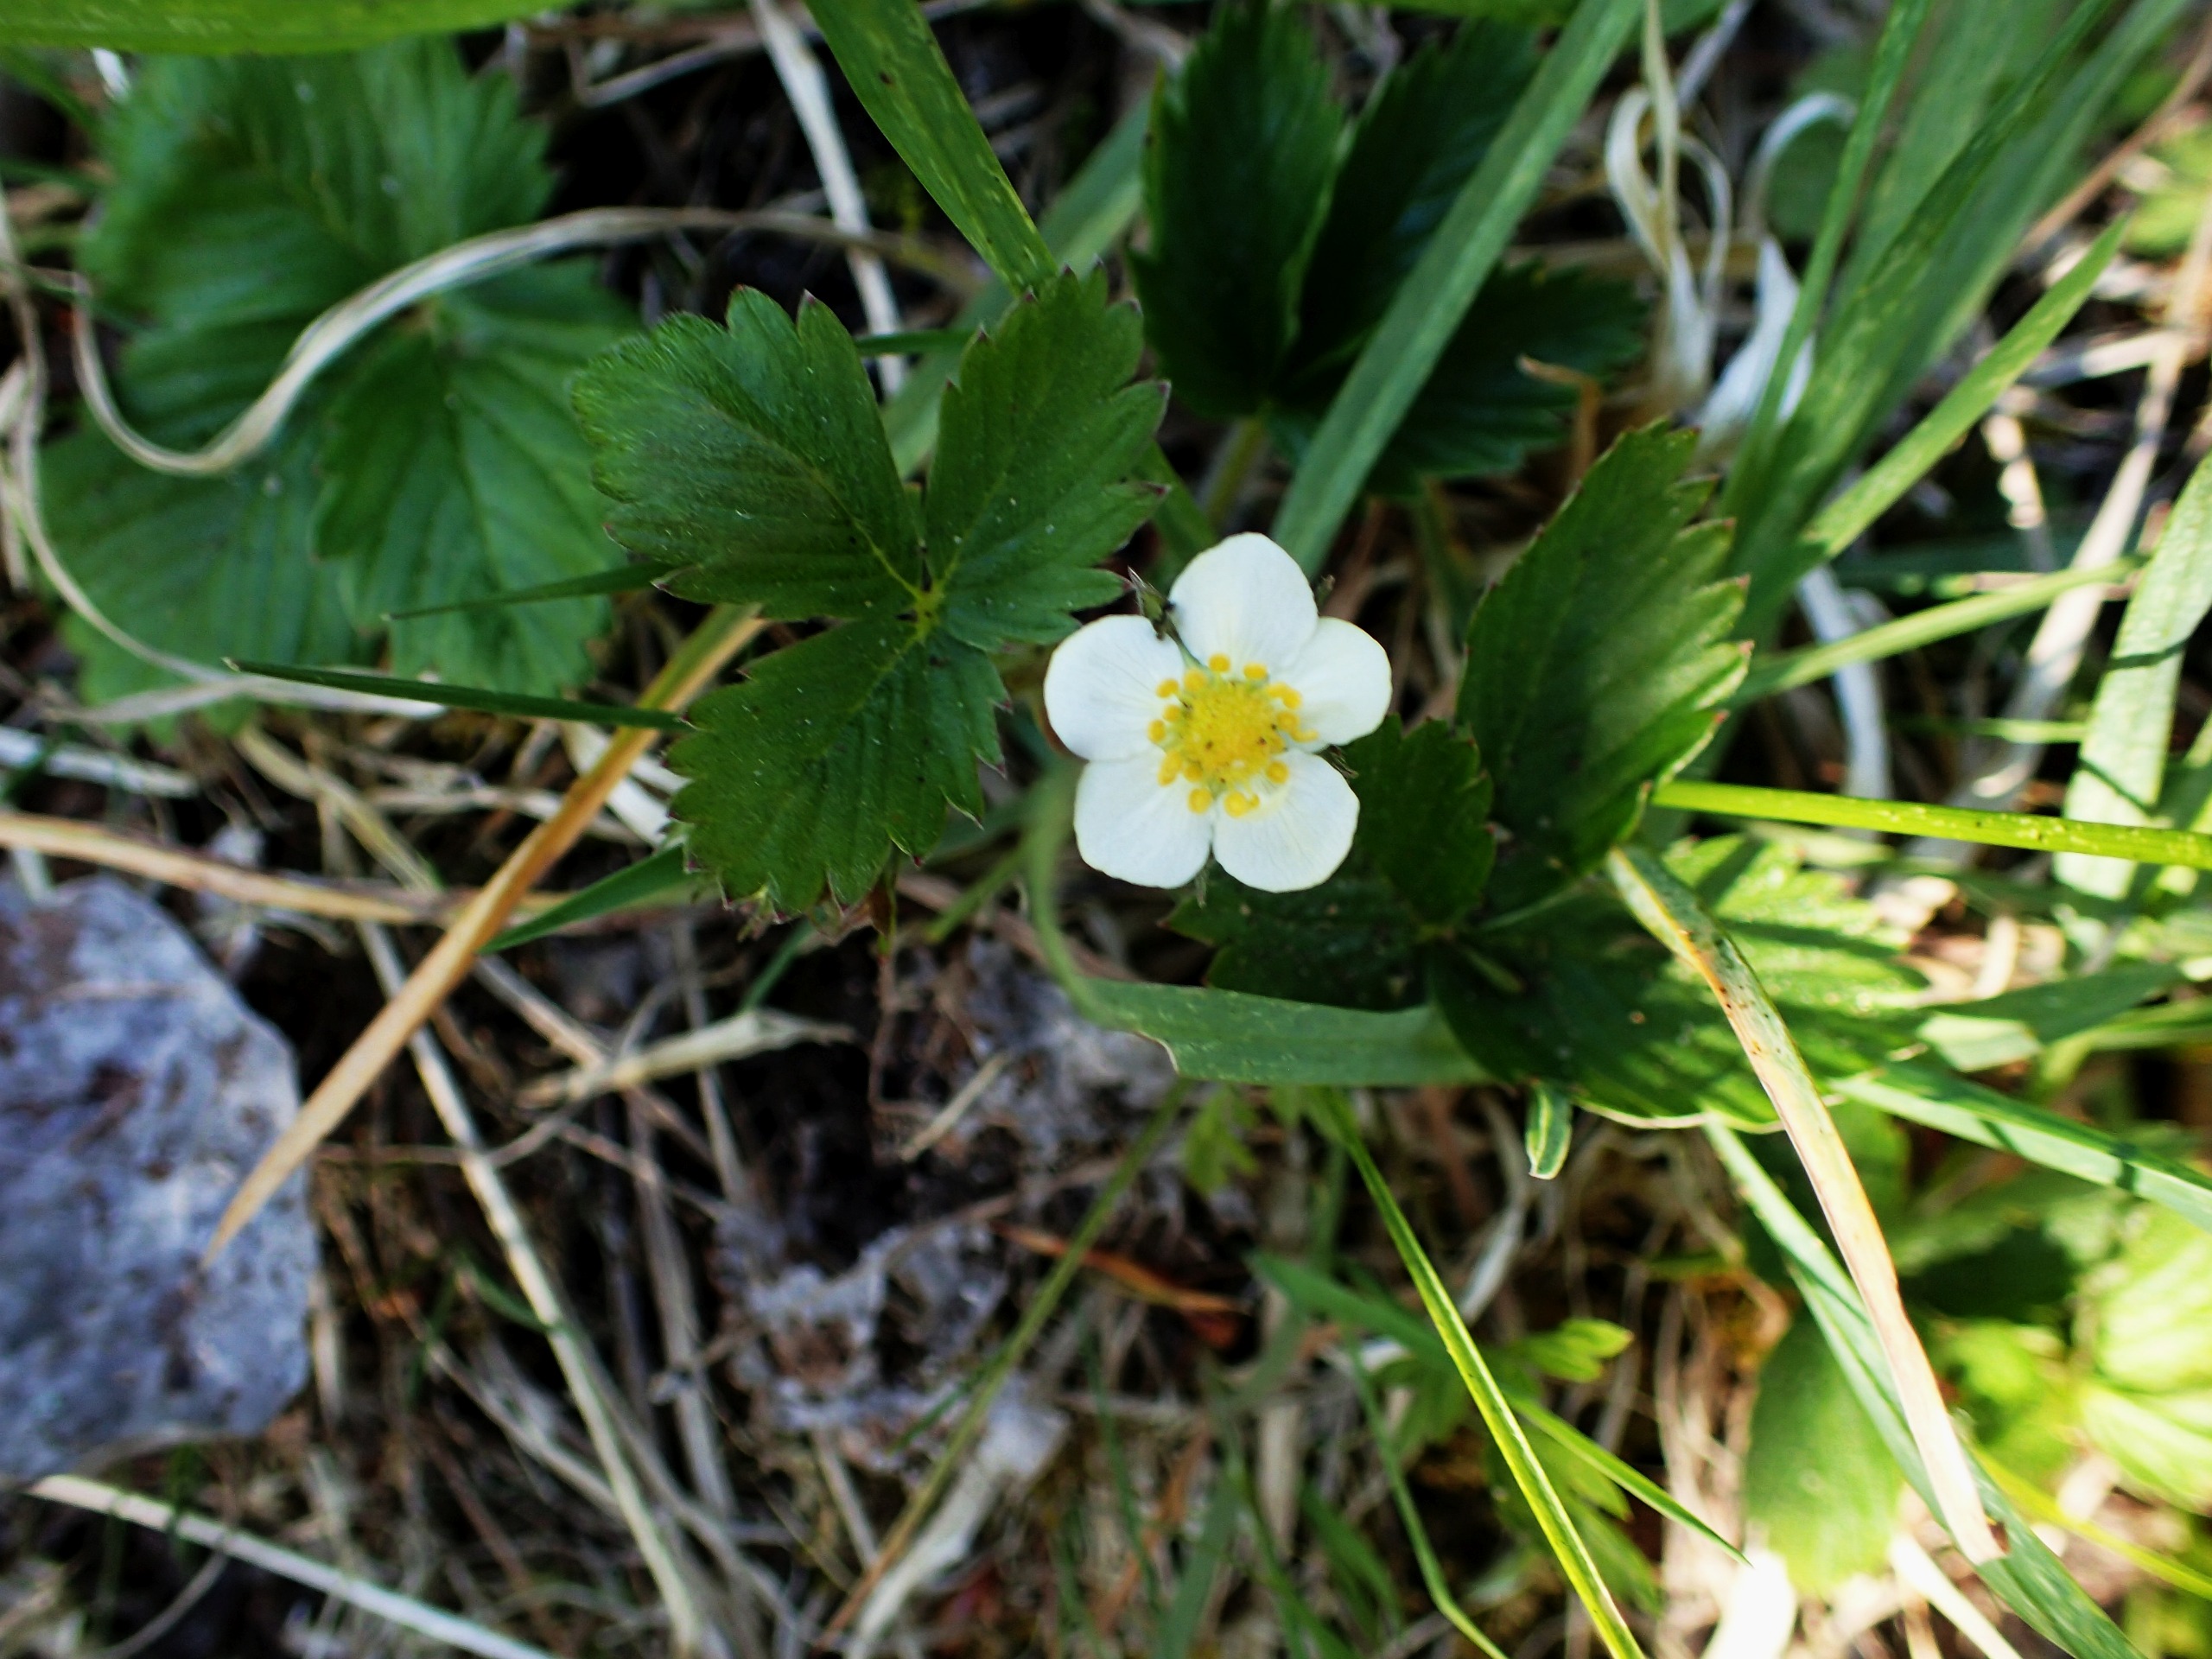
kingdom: Plantae
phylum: Tracheophyta
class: Magnoliopsida
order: Rosales
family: Rosaceae
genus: Fragaria
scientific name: Fragaria vesca
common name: Skov-jordbær
